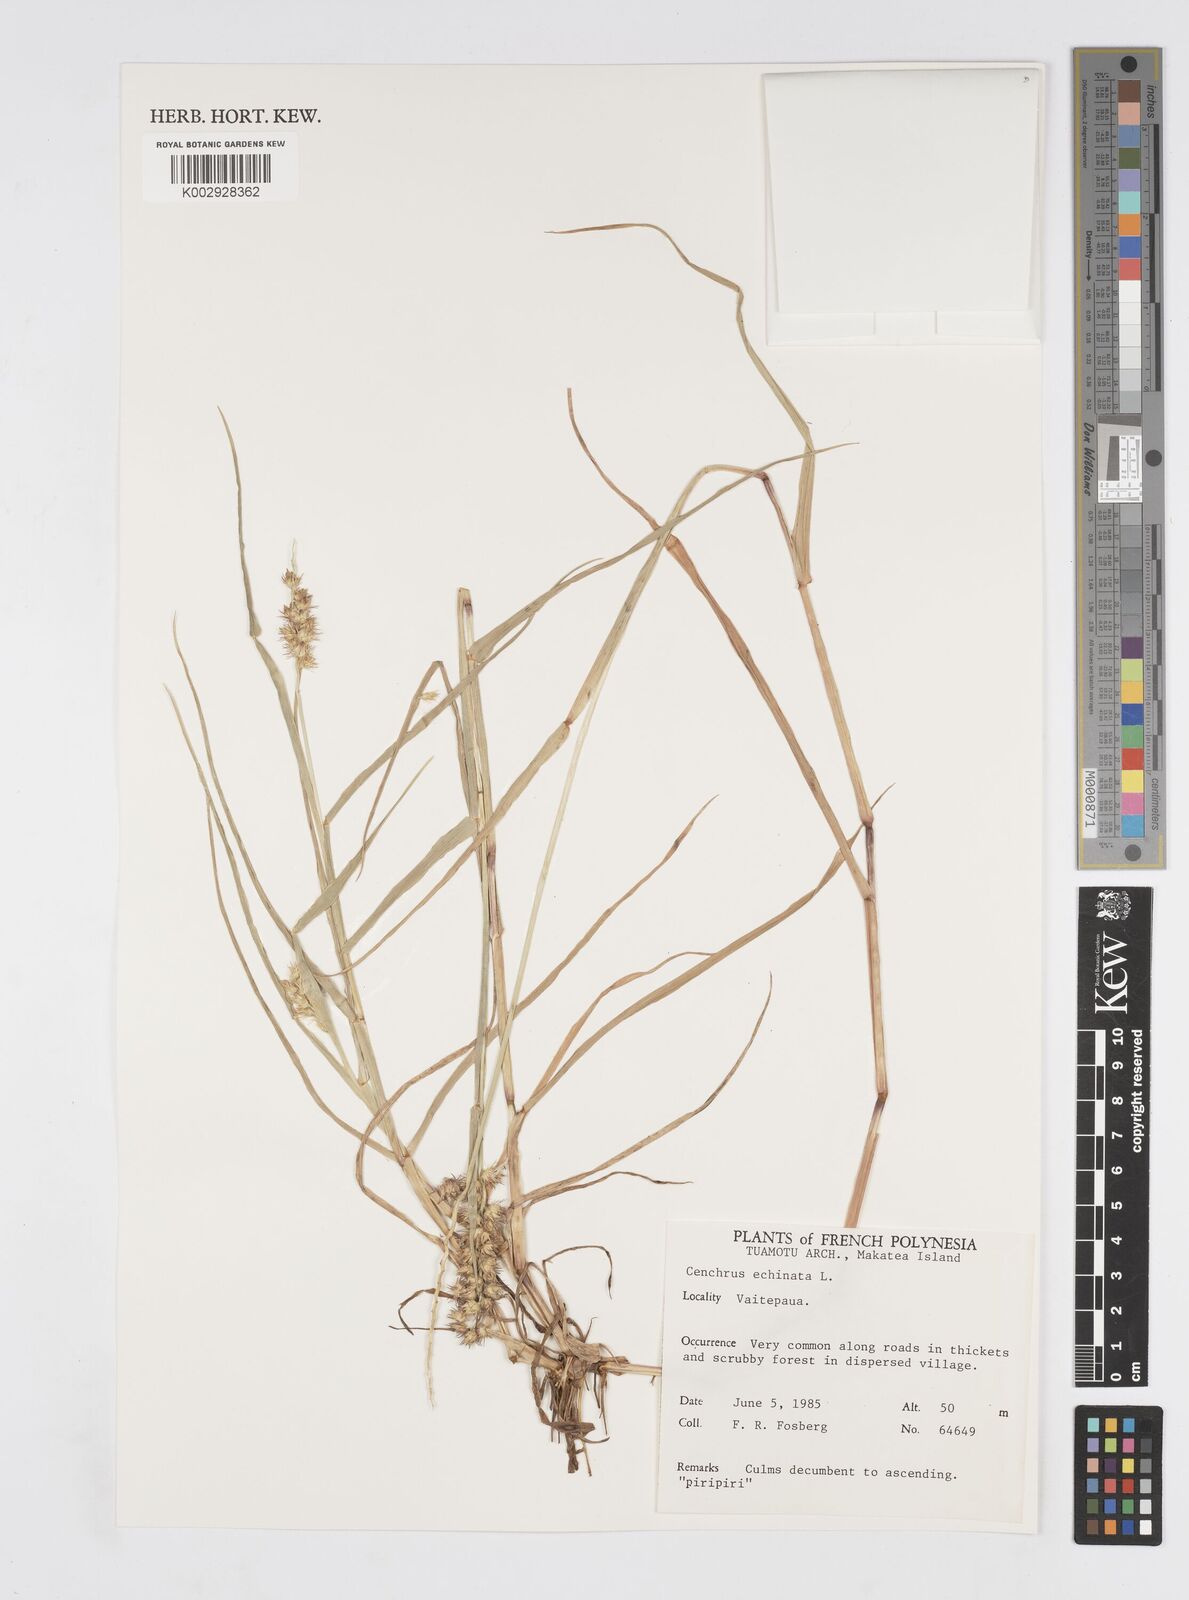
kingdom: Plantae
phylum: Tracheophyta
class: Liliopsida
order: Poales
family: Poaceae
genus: Cenchrus
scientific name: Cenchrus echinatus
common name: Southern sandbur
